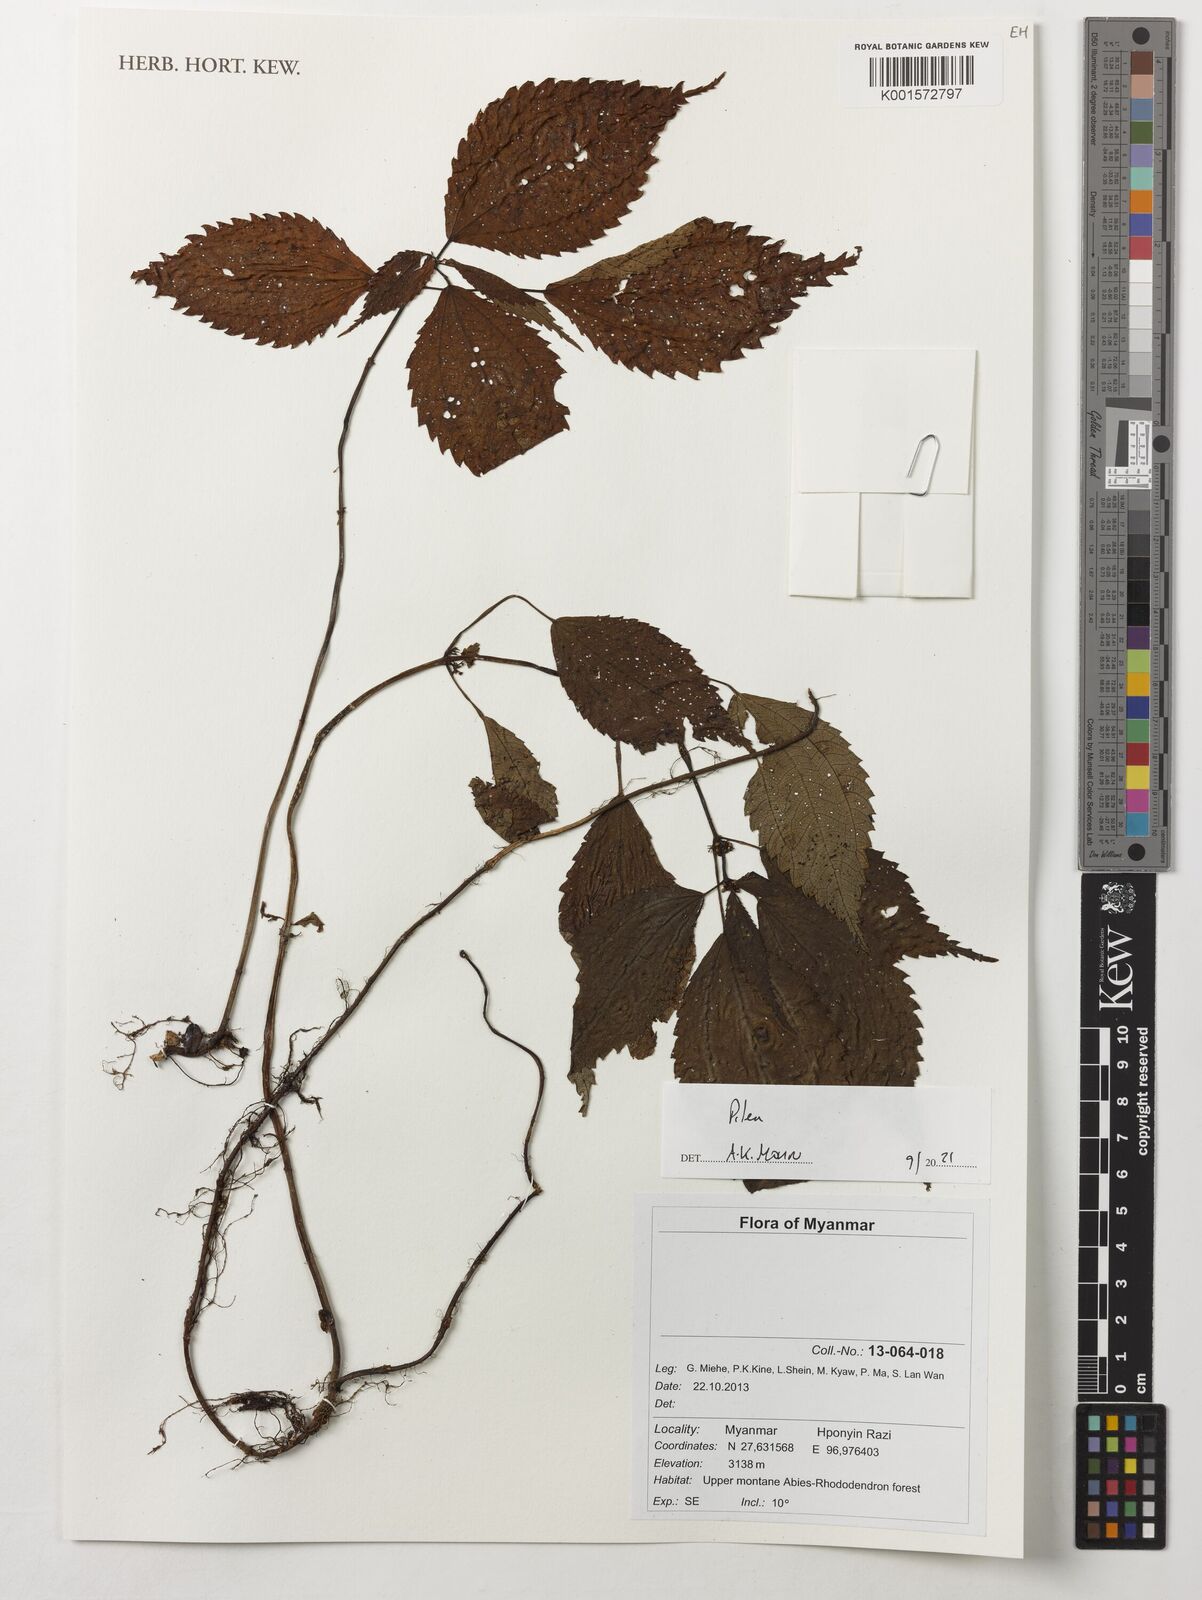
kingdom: Plantae
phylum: Tracheophyta
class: Magnoliopsida
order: Rosales
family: Urticaceae
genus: Pilea
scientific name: Pilea
